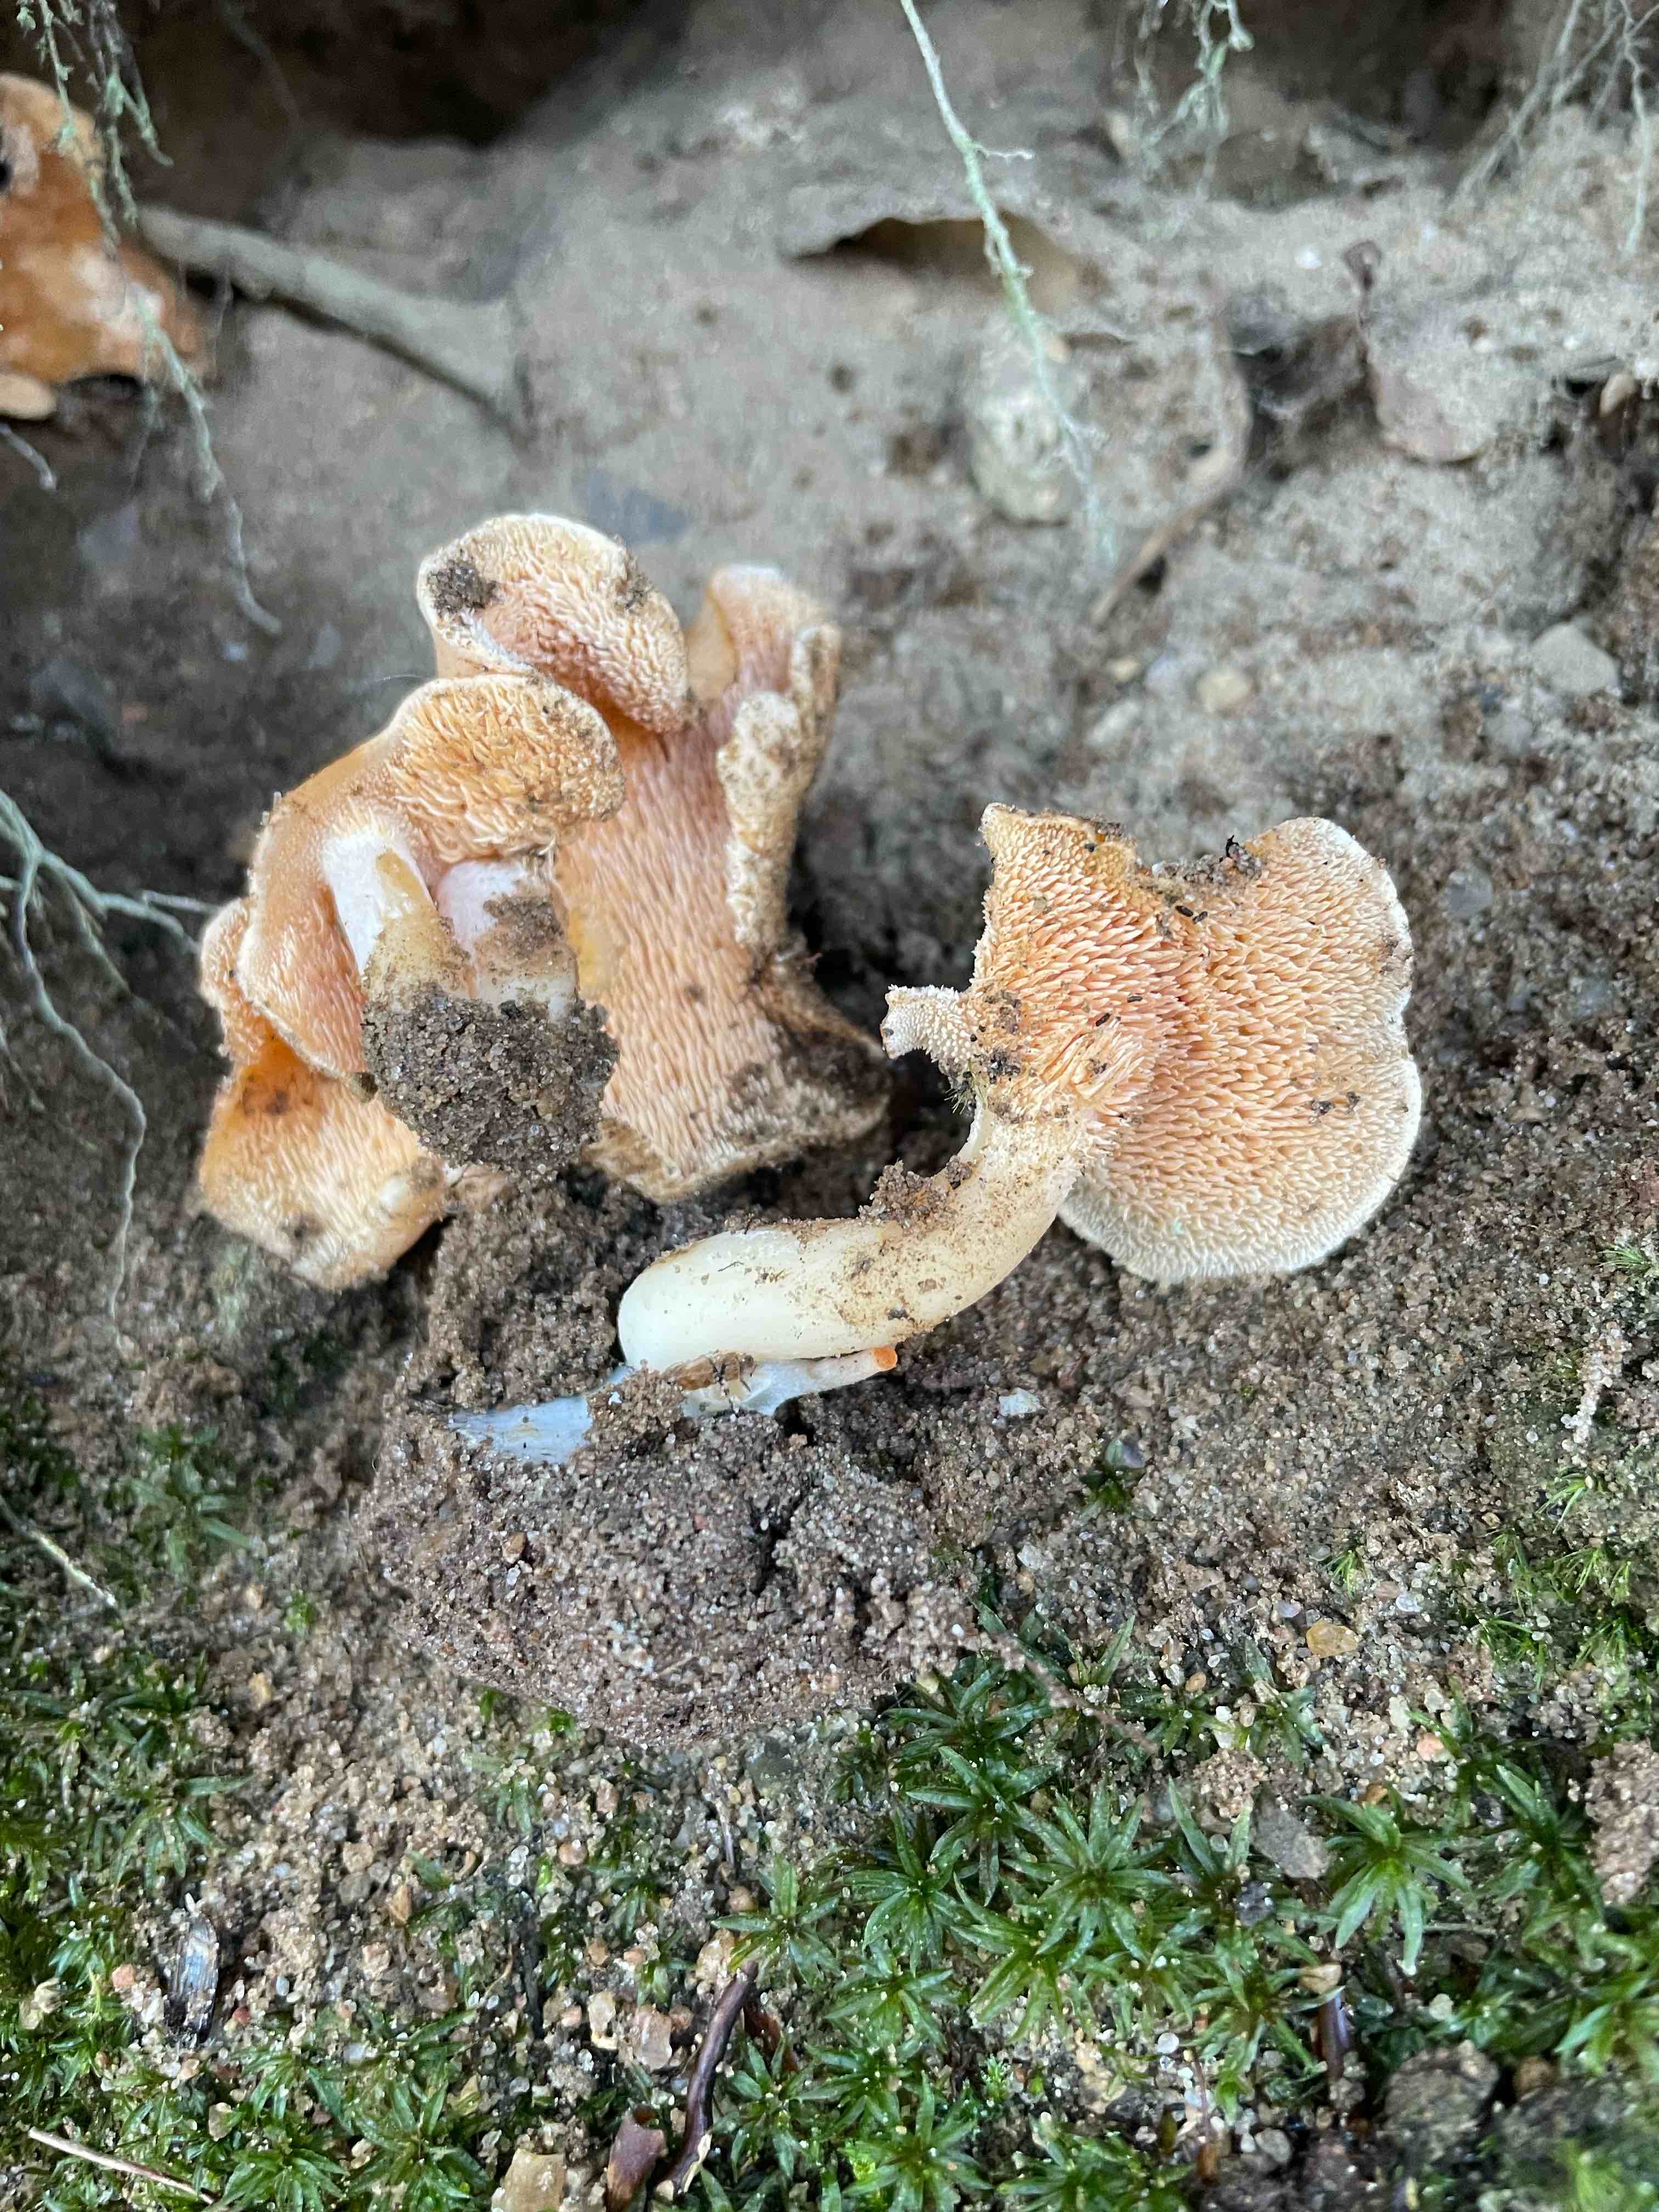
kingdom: Fungi
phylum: Basidiomycota
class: Agaricomycetes
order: Cantharellales
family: Hydnaceae
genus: Hydnum
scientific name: Hydnum rufescens
